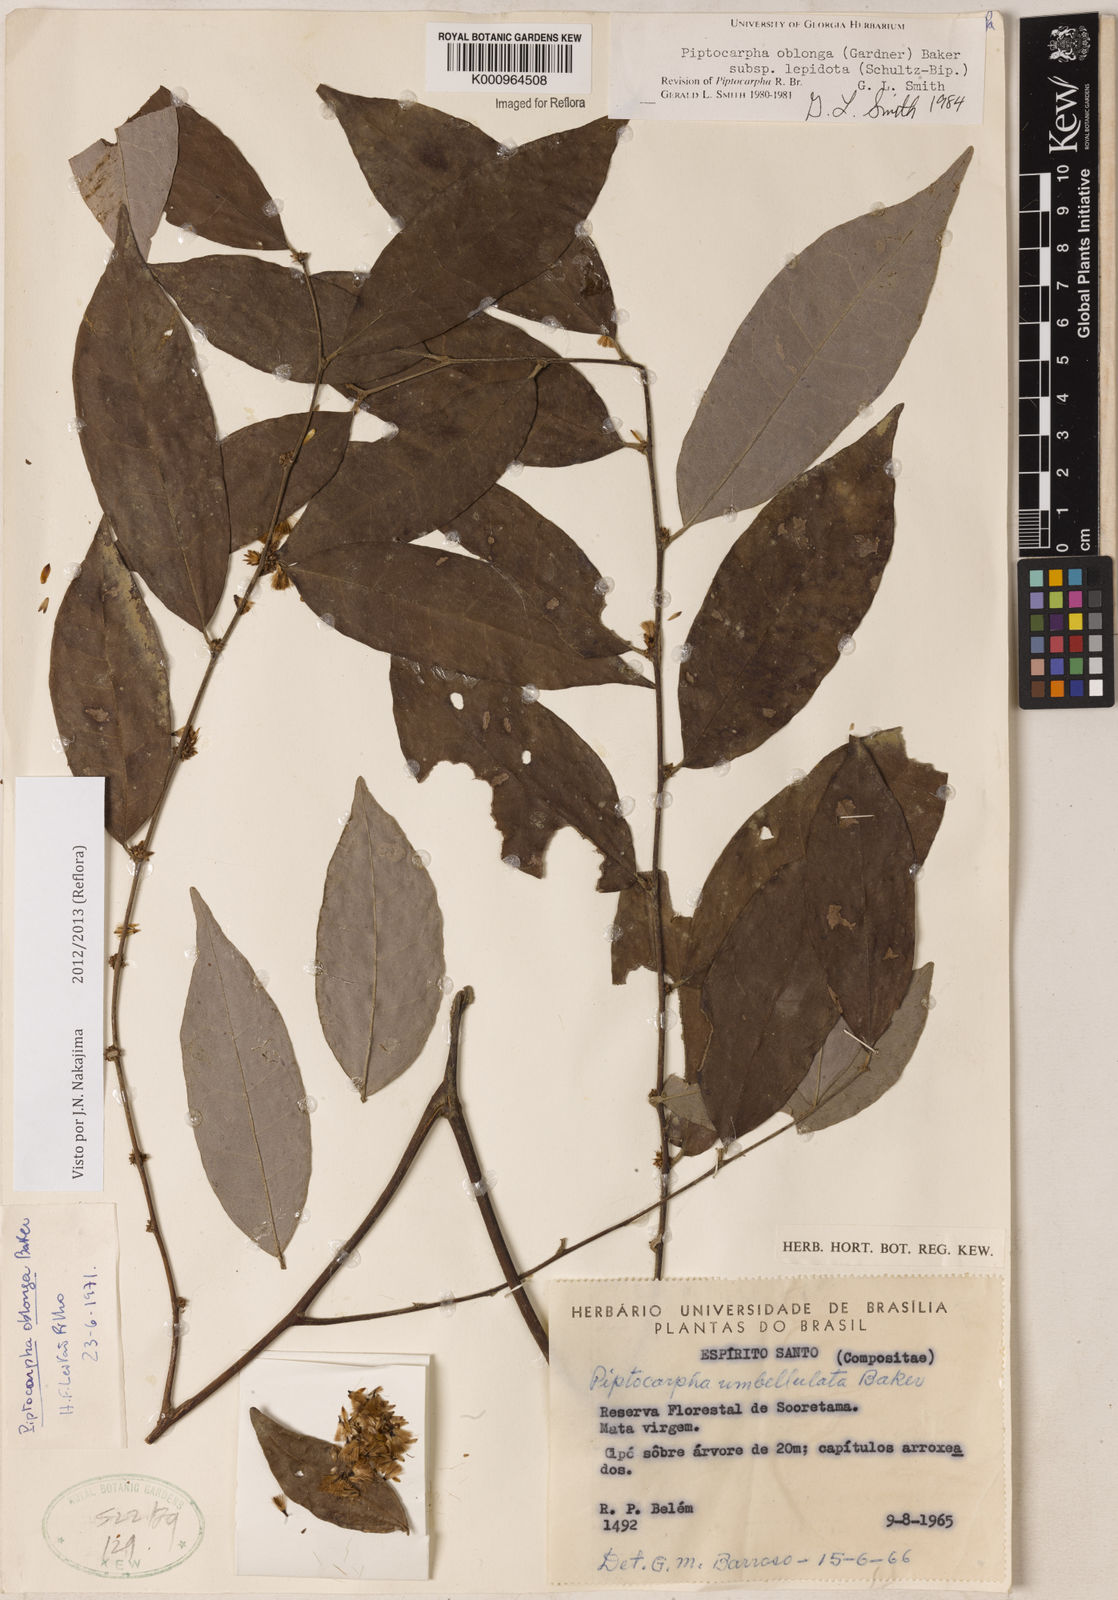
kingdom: Plantae
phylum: Tracheophyta
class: Magnoliopsida
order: Asterales
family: Asteraceae
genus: Piptocarpha
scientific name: Piptocarpha oblonga
